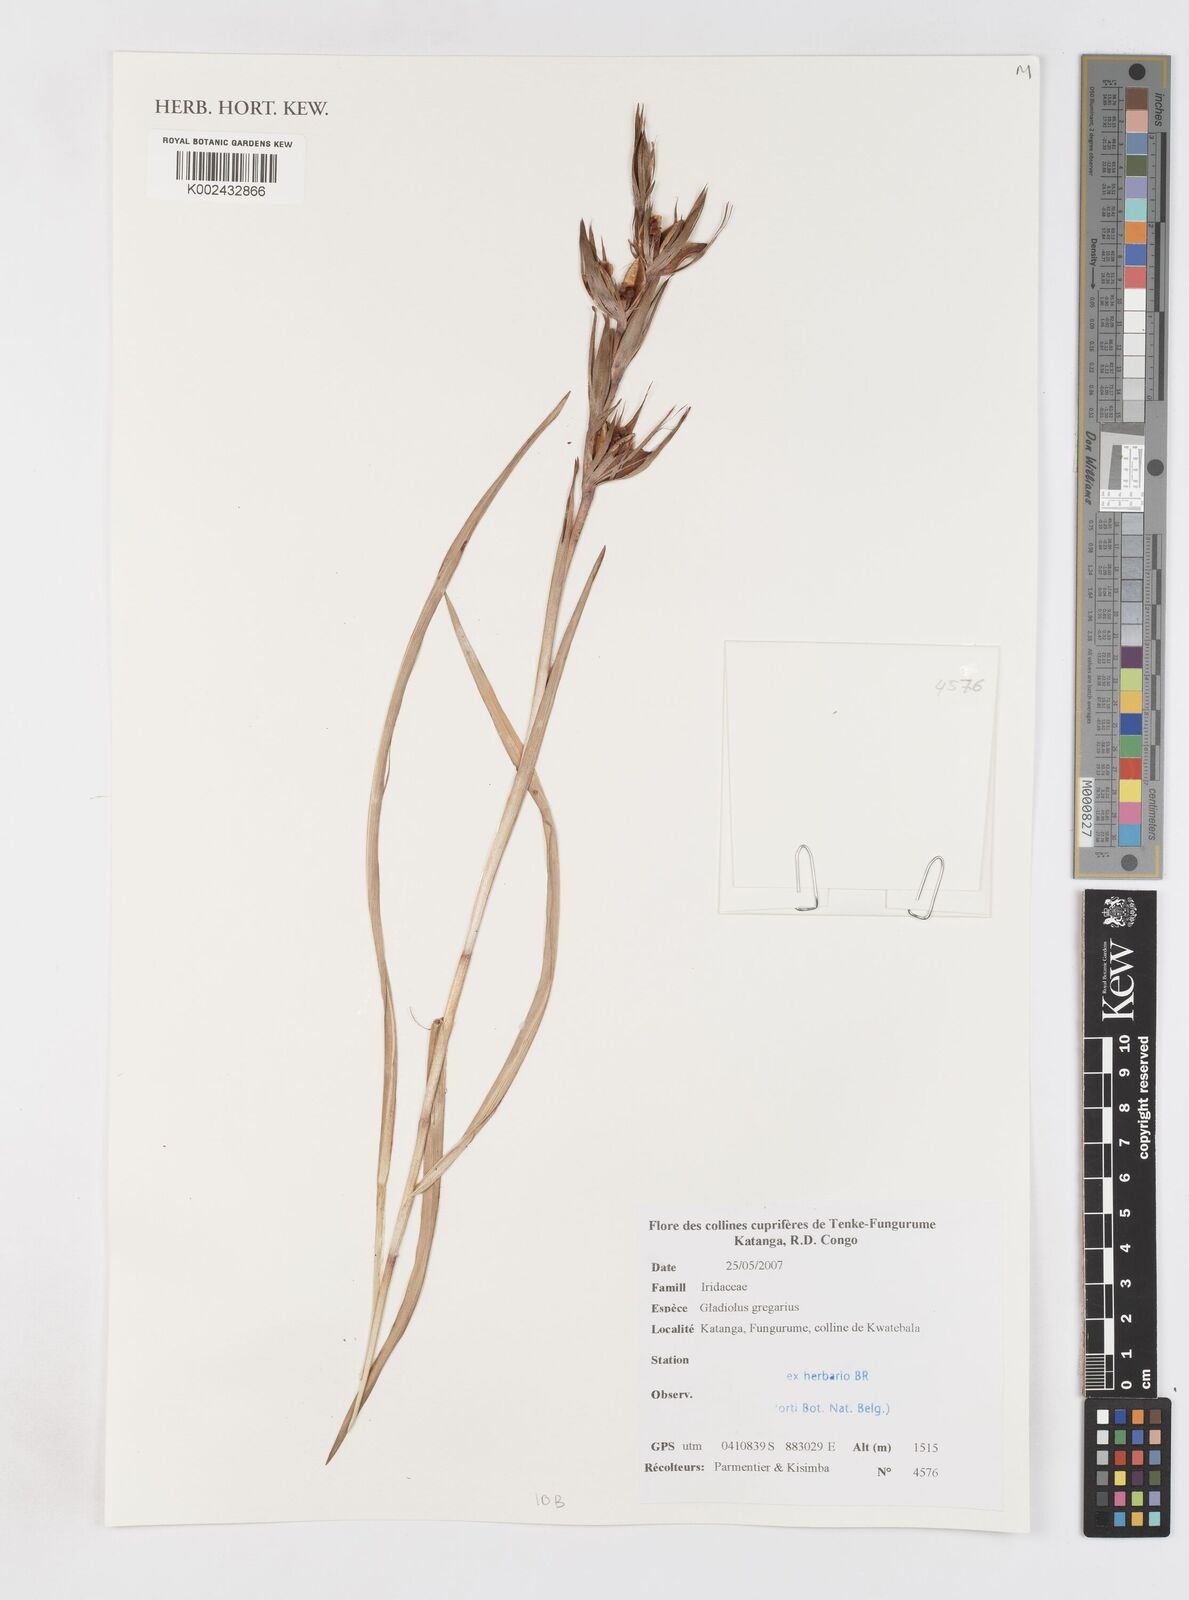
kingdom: Plantae
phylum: Tracheophyta
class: Liliopsida
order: Asparagales
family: Iridaceae
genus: Gladiolus
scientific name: Gladiolus gregarius
